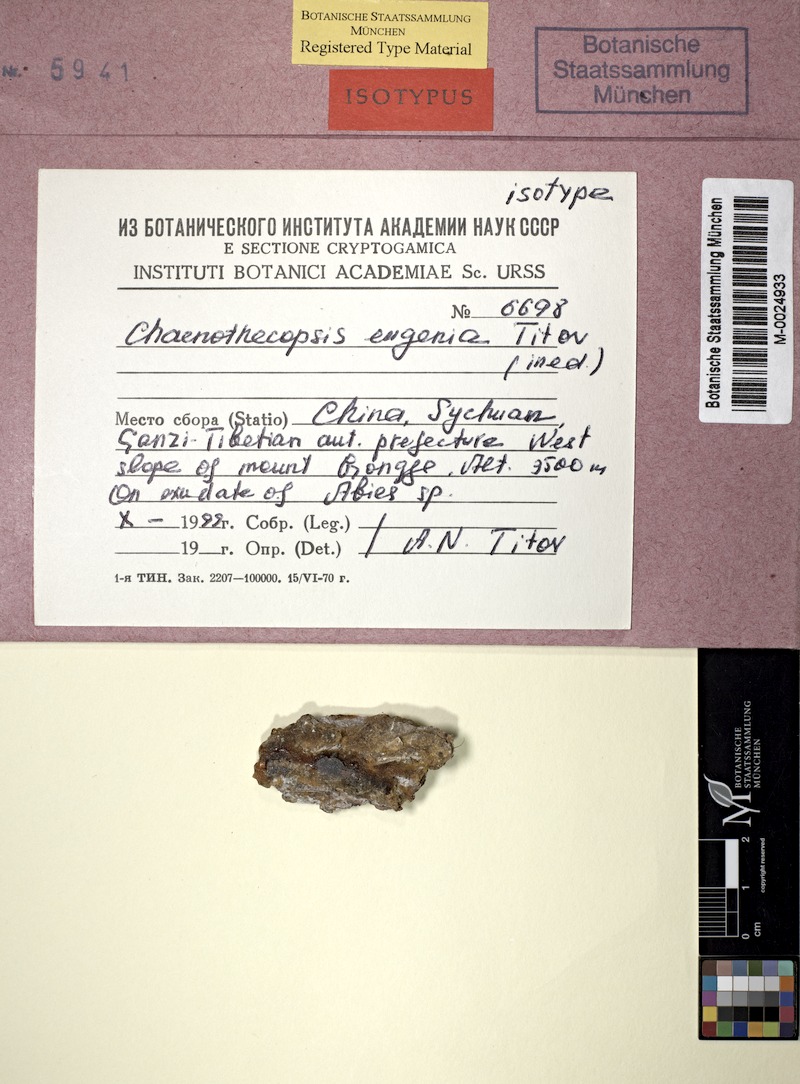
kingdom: Fungi
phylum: Ascomycota
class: Eurotiomycetes
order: Mycocaliciales
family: Mycocaliciaceae
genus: Chaenothecopsis
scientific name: Chaenothecopsis eugenia
